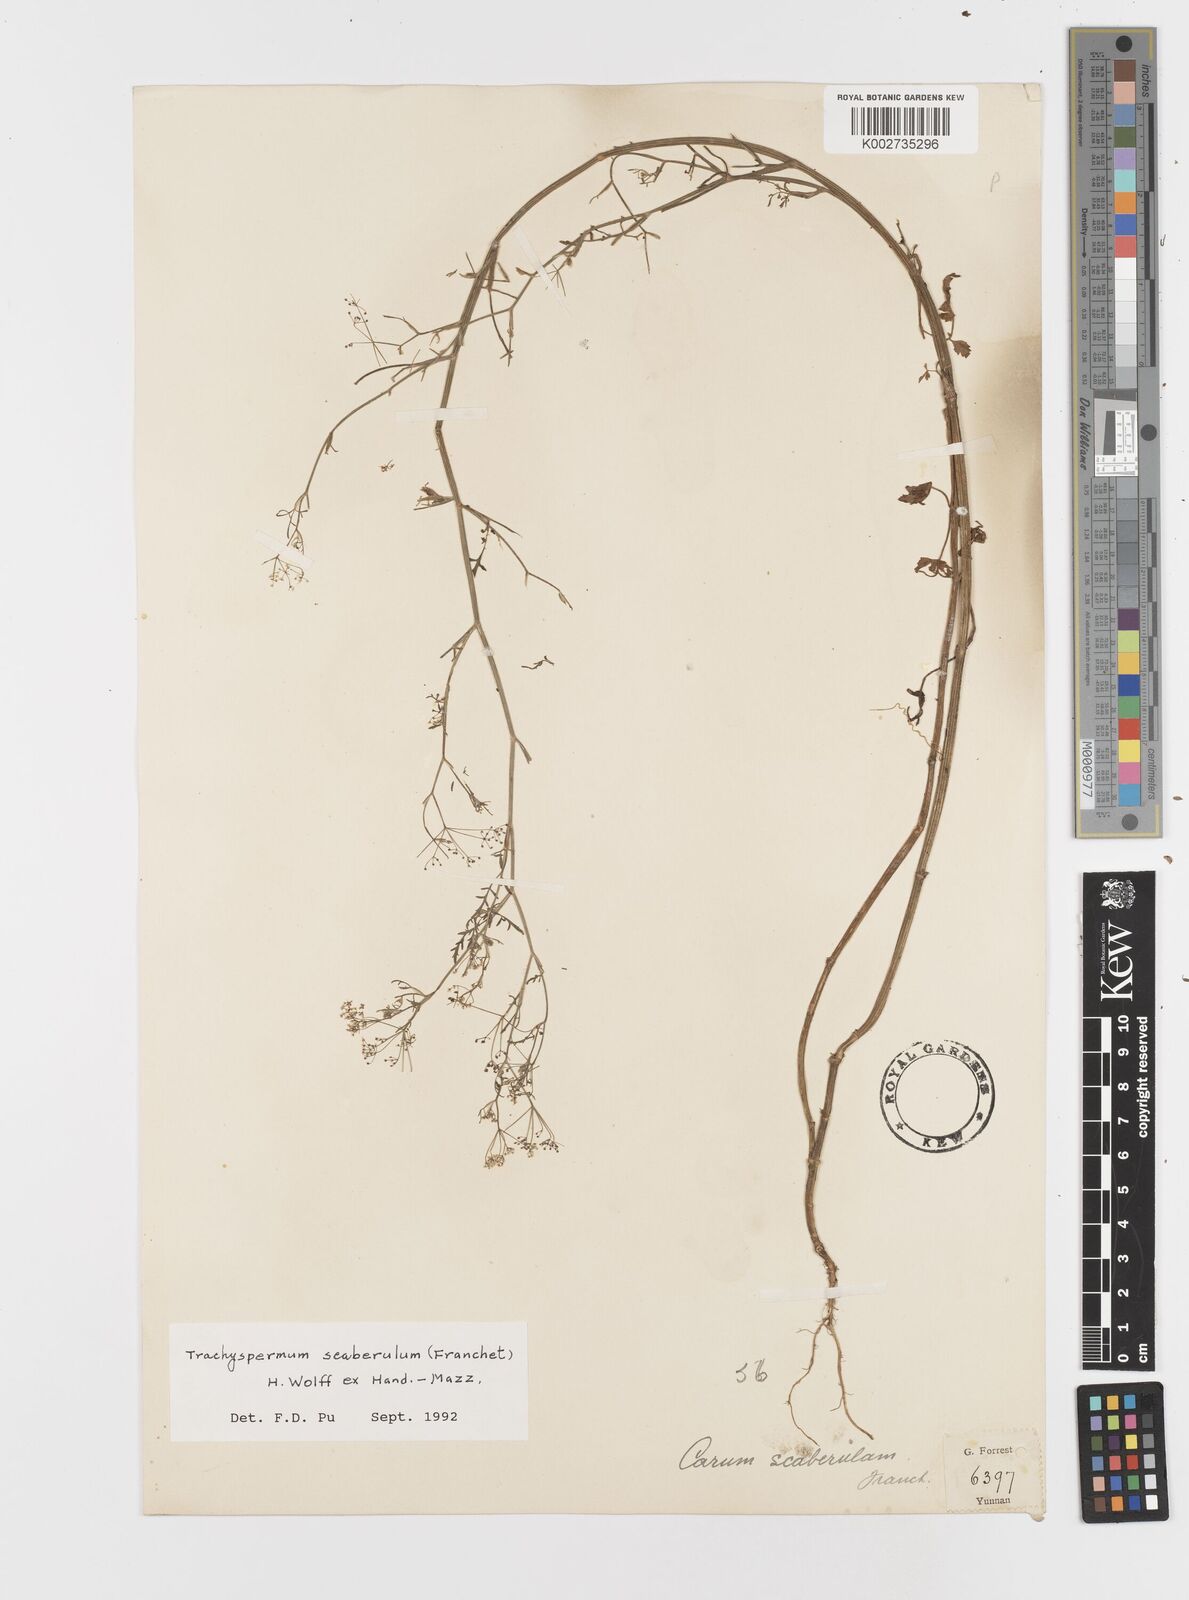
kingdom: Plantae
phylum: Tracheophyta
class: Magnoliopsida
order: Apiales
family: Apiaceae
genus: Pimpinella
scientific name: Pimpinella scaberula
